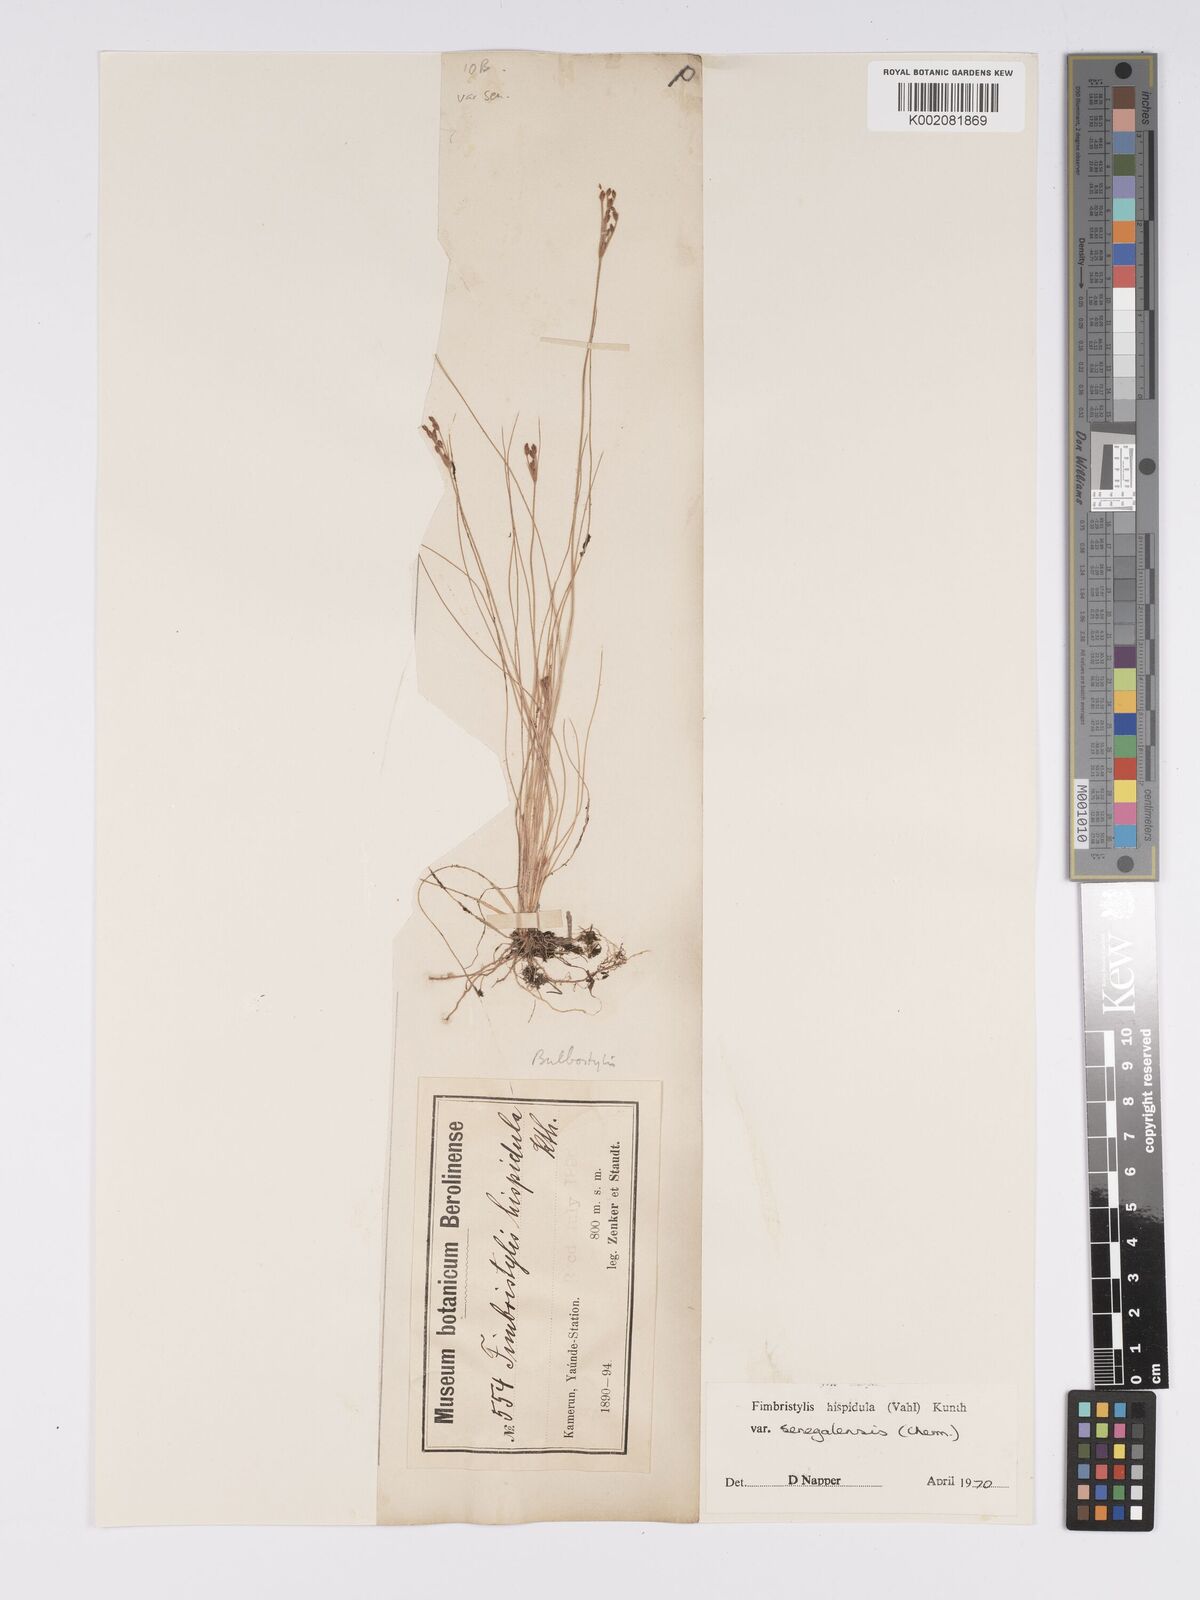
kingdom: Plantae
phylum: Tracheophyta
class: Liliopsida
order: Poales
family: Cyperaceae
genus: Bulbostylis
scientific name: Bulbostylis hispidula
